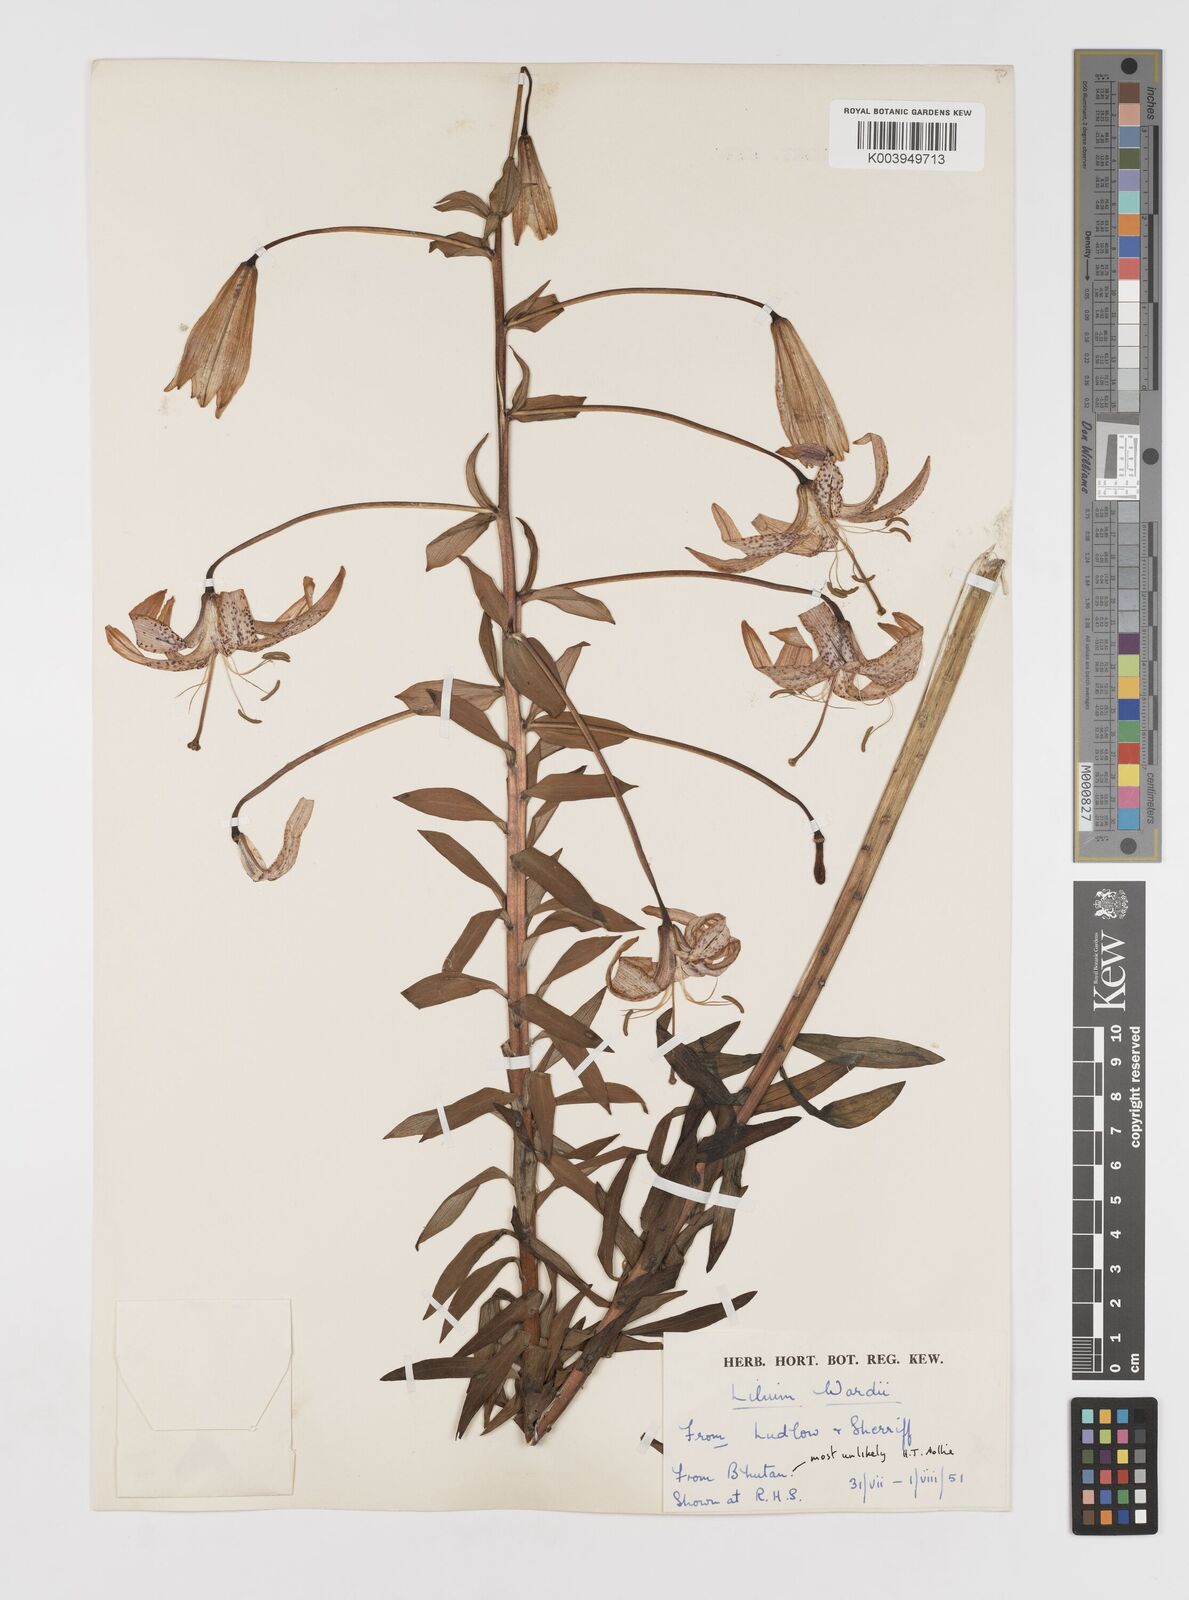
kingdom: Plantae
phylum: Tracheophyta
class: Liliopsida
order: Liliales
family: Liliaceae
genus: Lilium
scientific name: Lilium wardii
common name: Ward's lily
